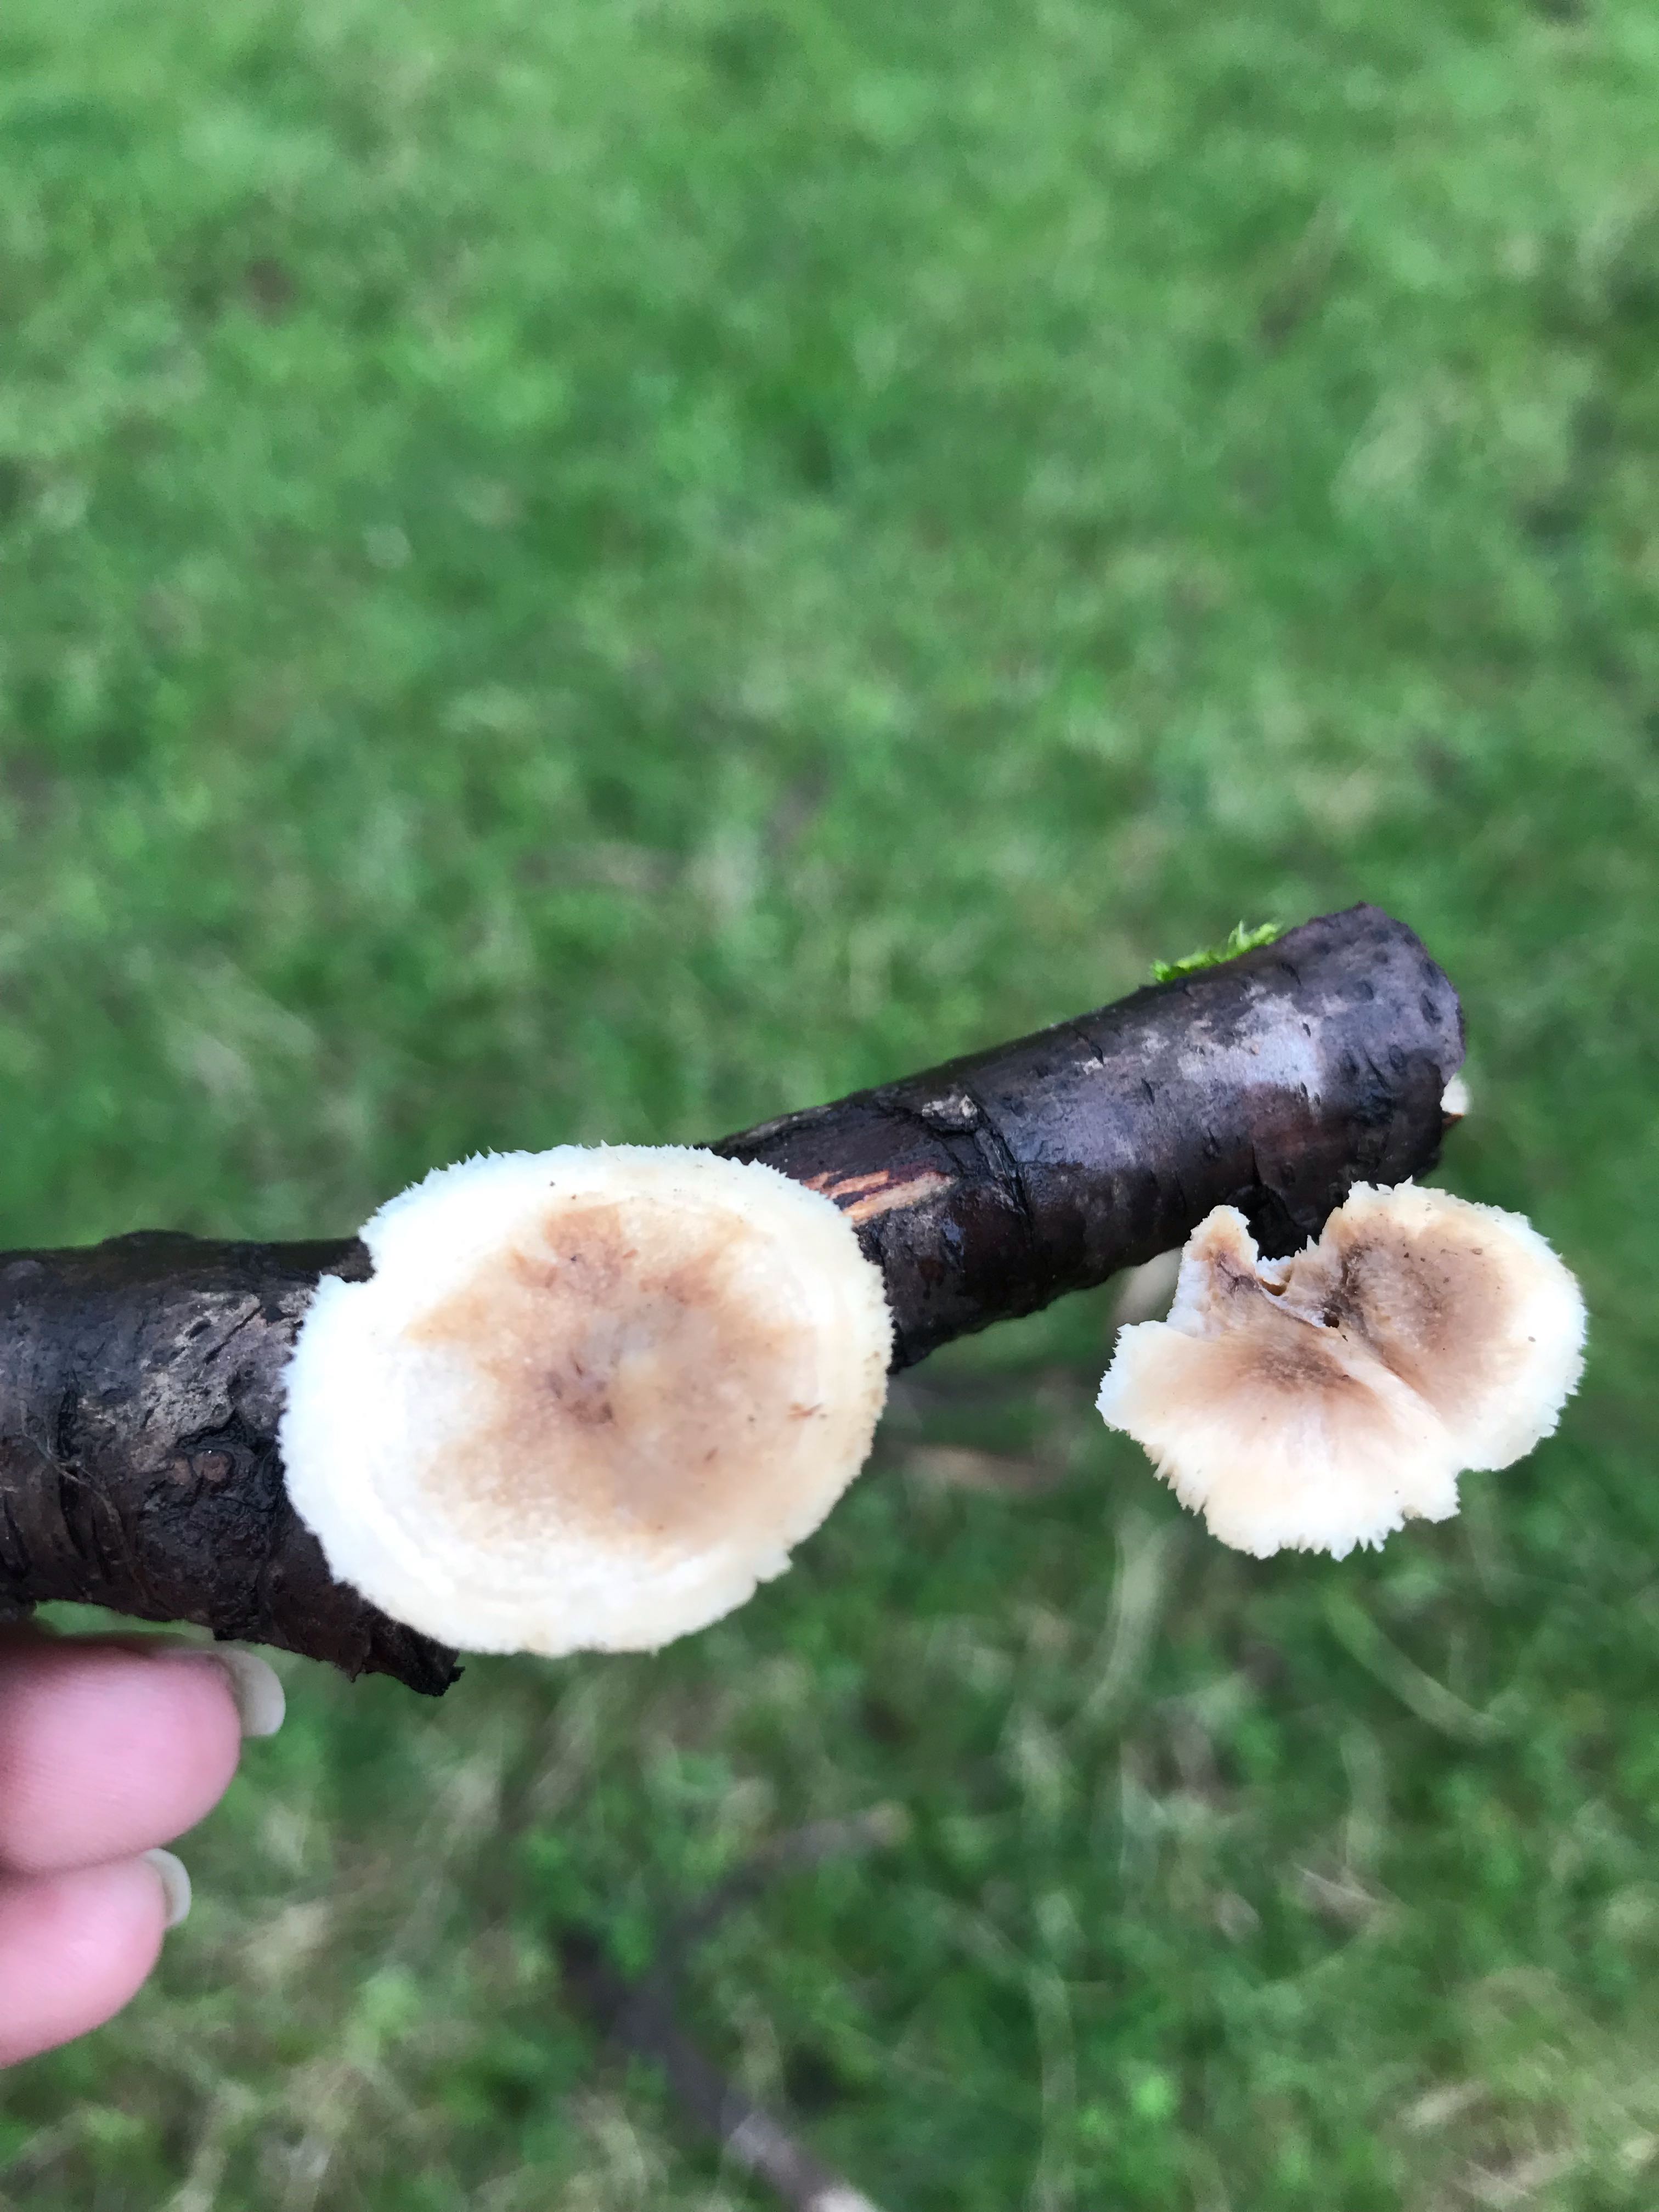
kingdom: Fungi
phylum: Basidiomycota
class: Agaricomycetes
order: Polyporales
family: Polyporaceae
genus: Lentinus
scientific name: Lentinus brumalis
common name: vinter-stilkporesvamp
